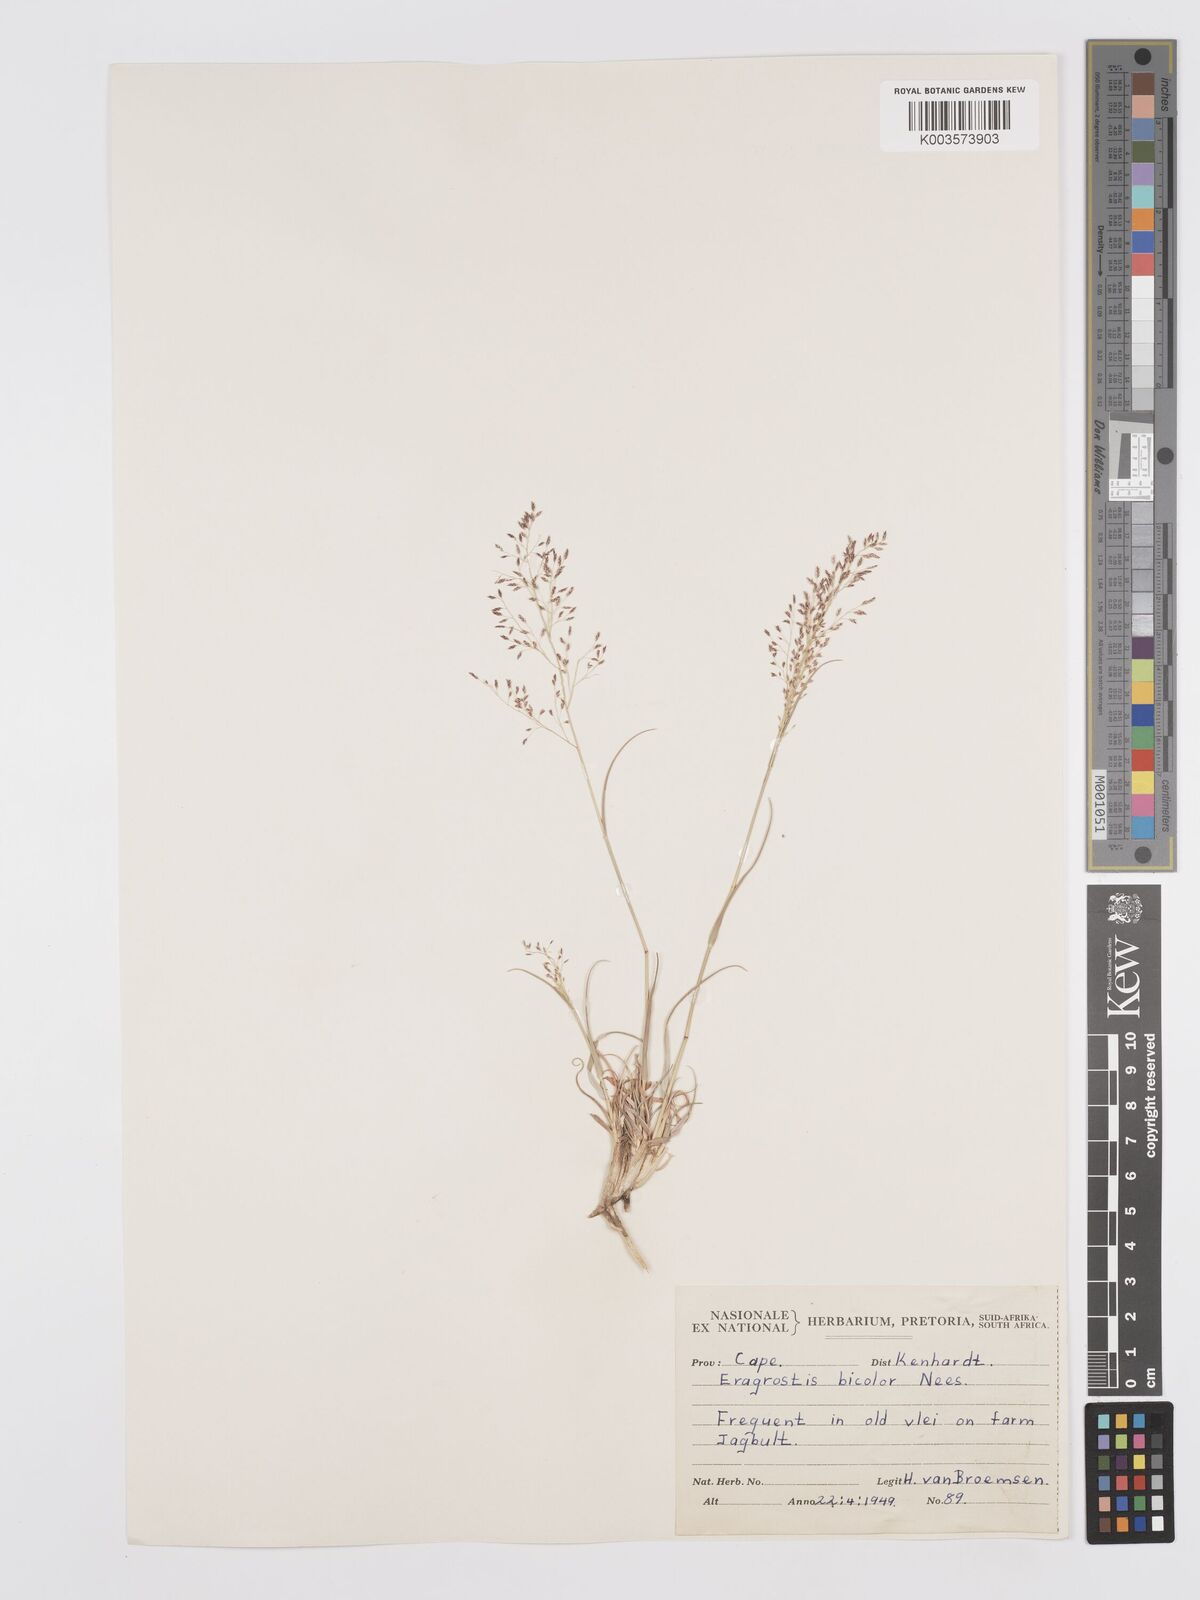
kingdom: Plantae
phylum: Tracheophyta
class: Liliopsida
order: Poales
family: Poaceae
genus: Eragrostis
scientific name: Eragrostis
